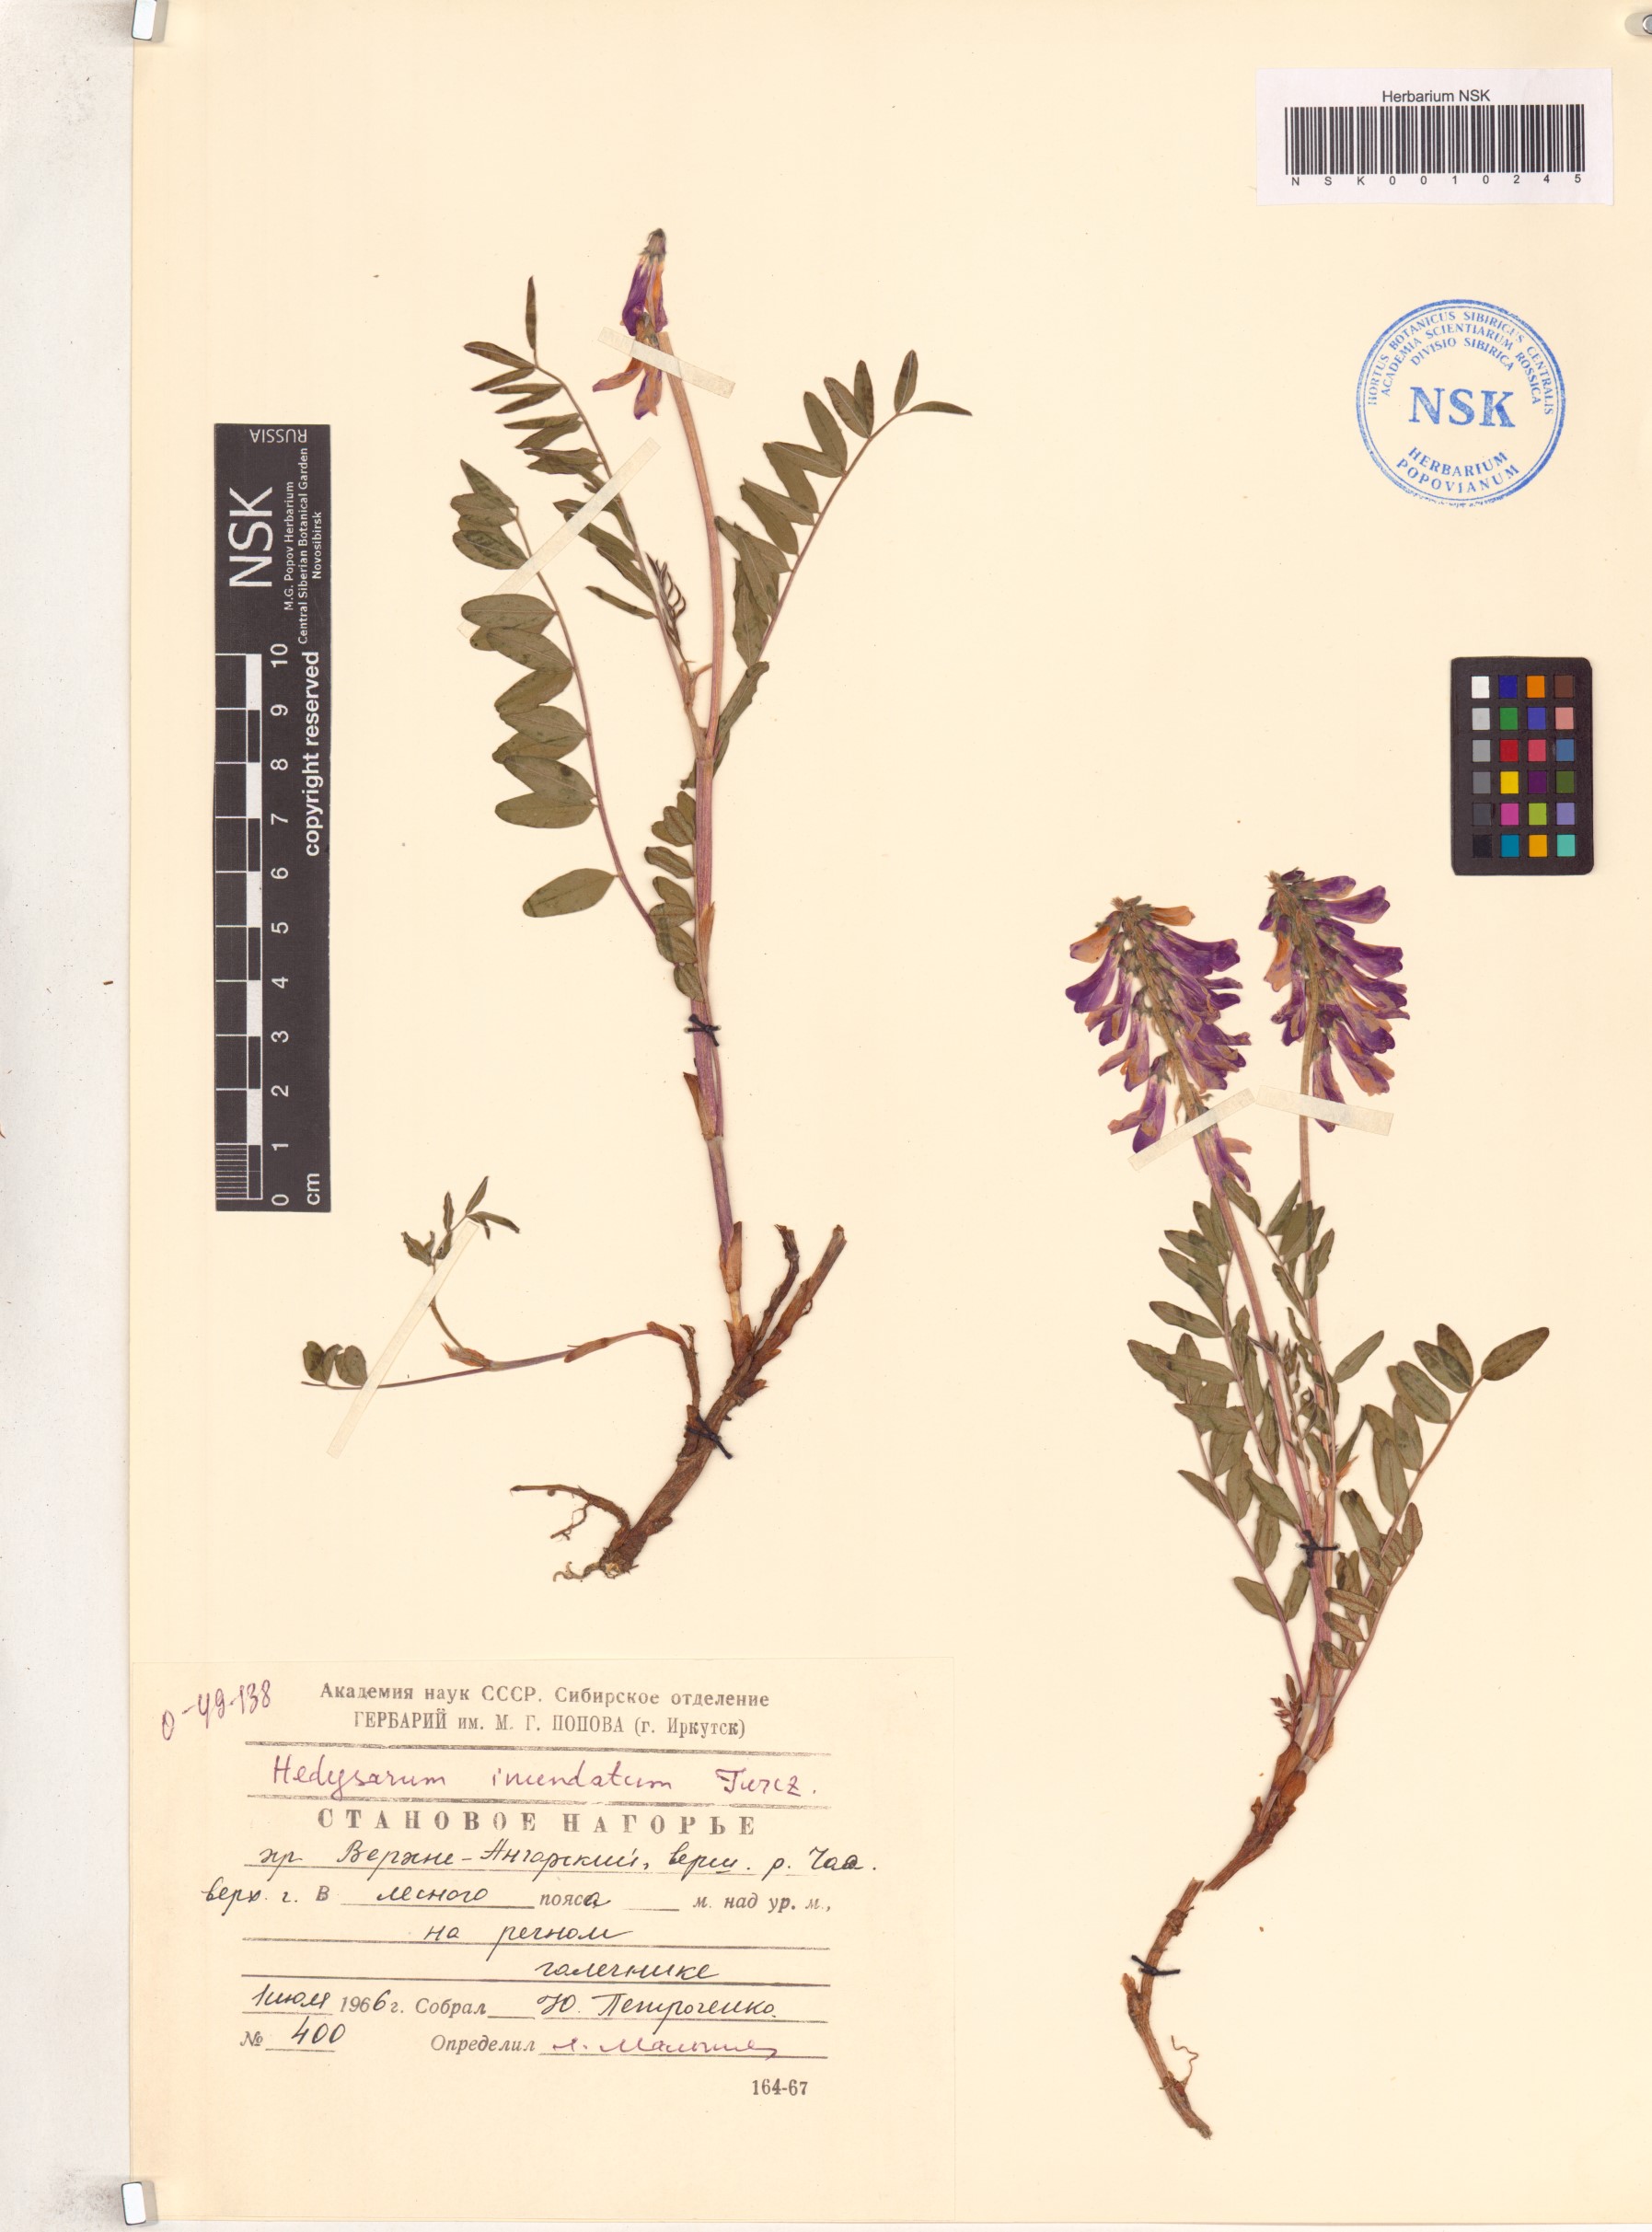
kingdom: Plantae
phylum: Tracheophyta
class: Magnoliopsida
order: Fabales
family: Fabaceae
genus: Hedysarum
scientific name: Hedysarum inundatum
